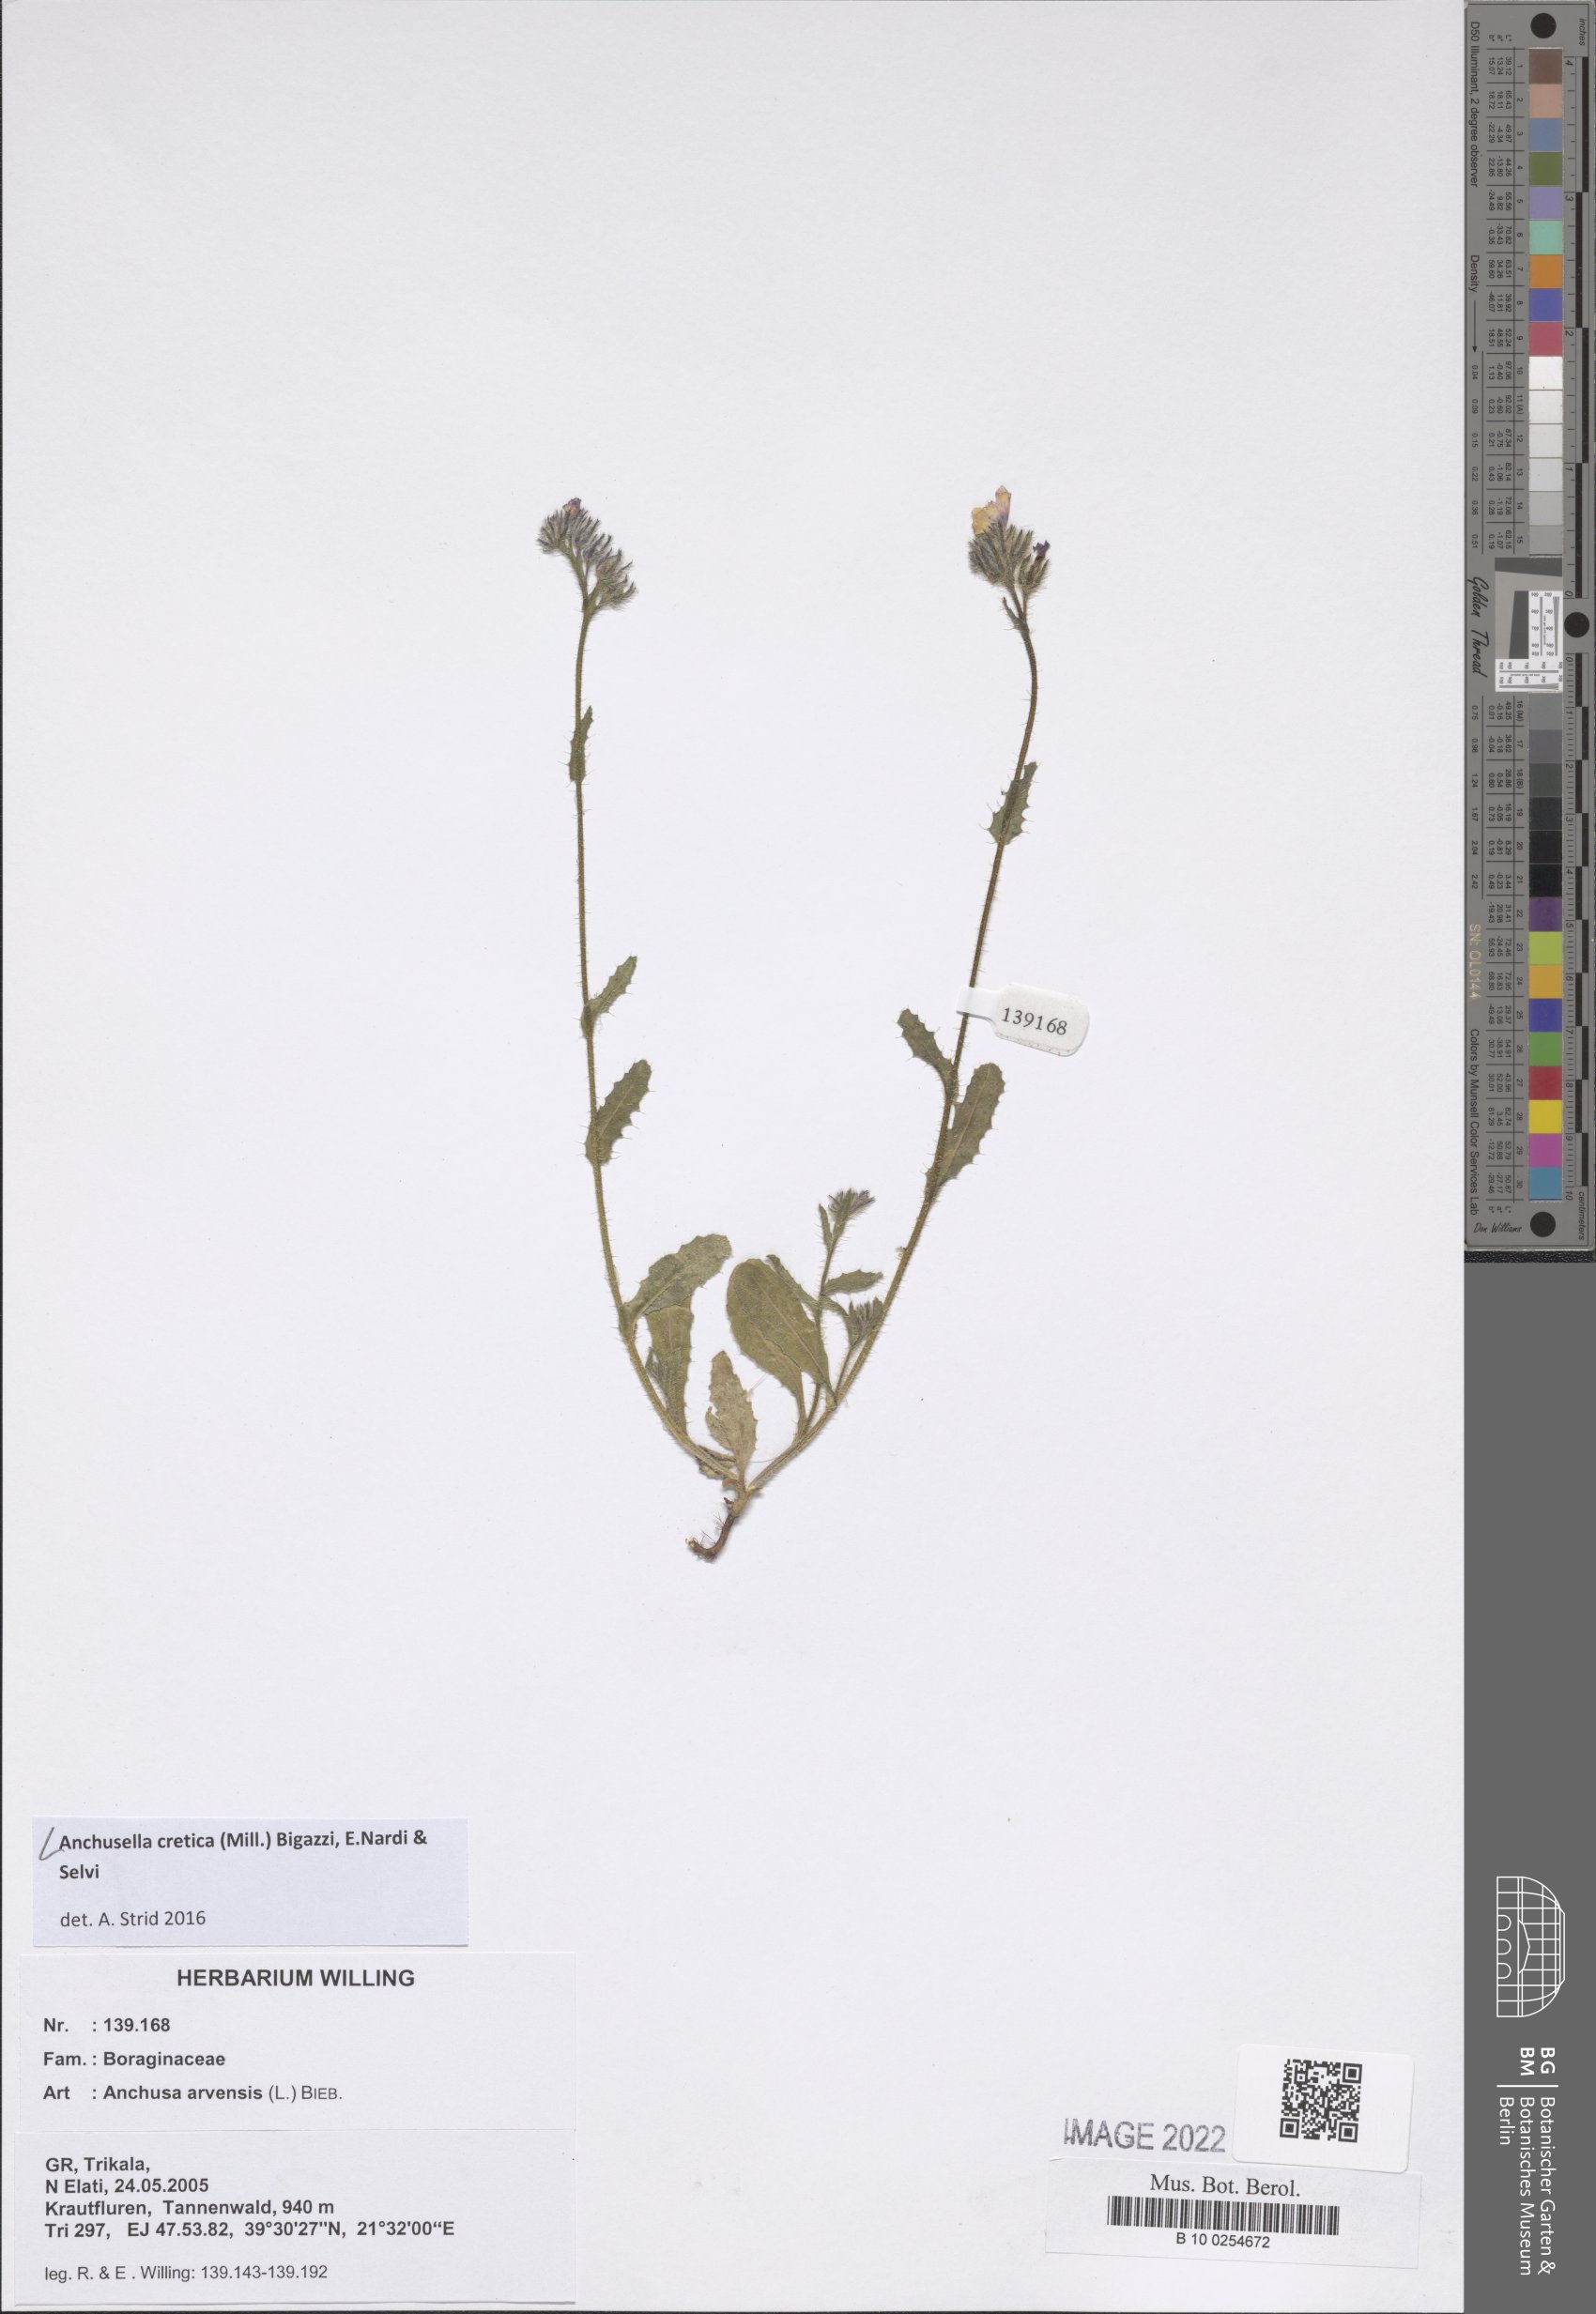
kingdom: Plantae
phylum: Tracheophyta
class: Magnoliopsida
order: Boraginales
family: Boraginaceae
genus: Anchusella
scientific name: Anchusella cretica
